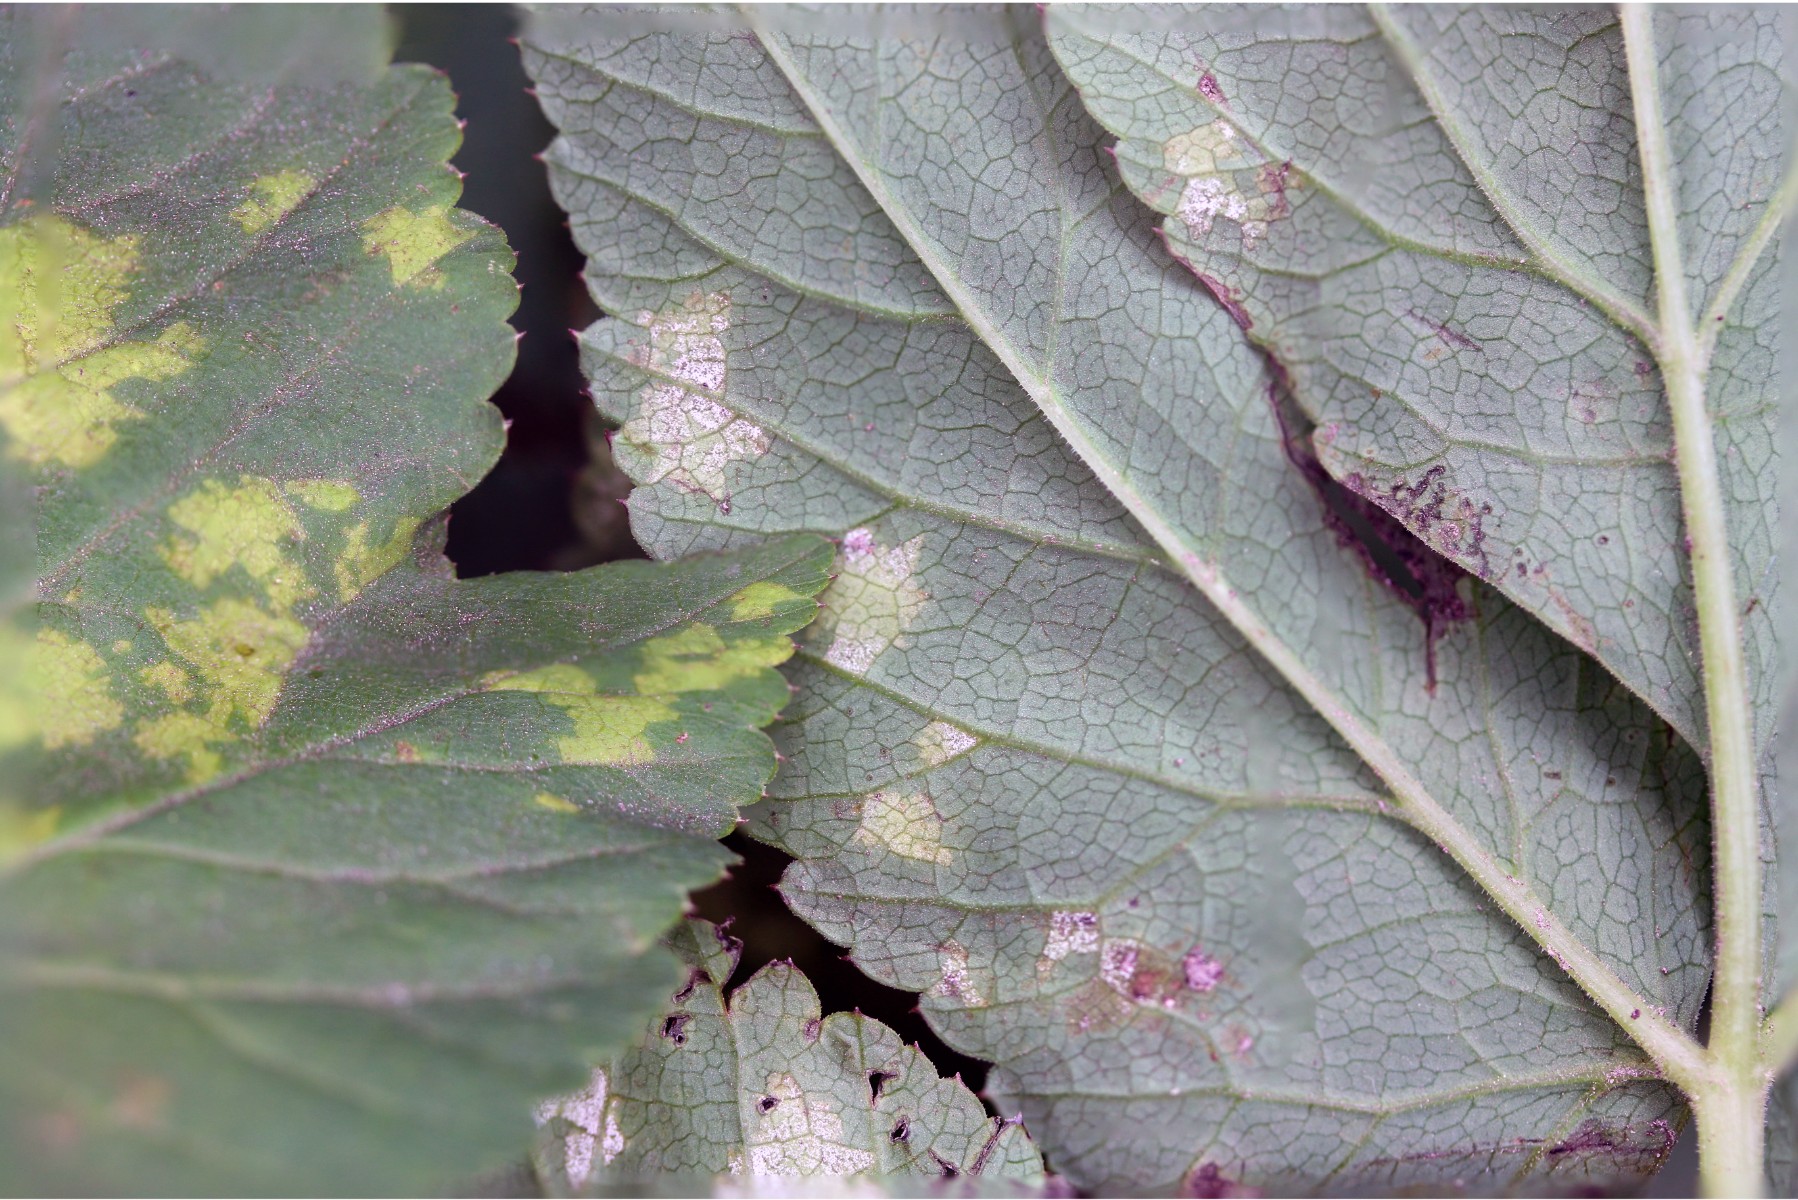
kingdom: Chromista
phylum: Oomycota
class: Peronosporea
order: Peronosporales
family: Peronosporaceae
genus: Peronospora
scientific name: Peronospora crustosa
